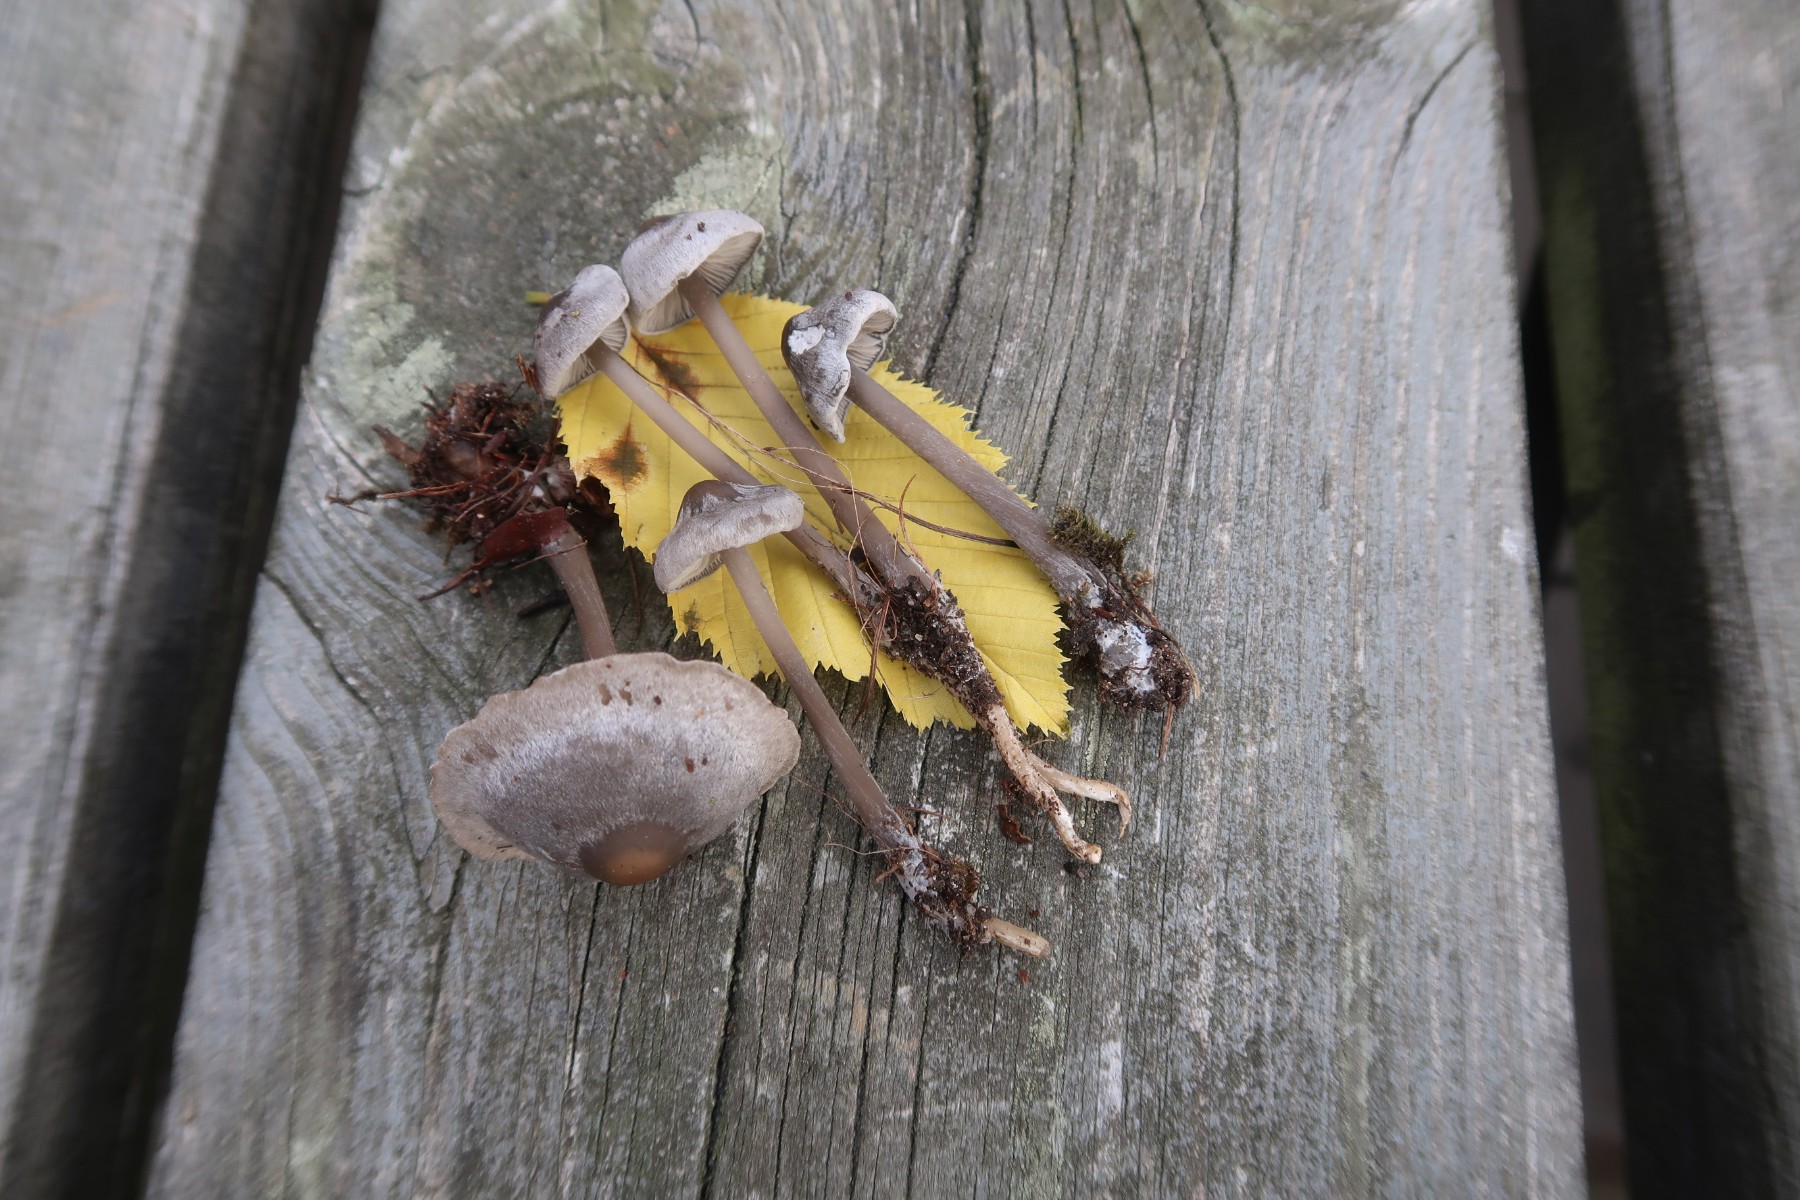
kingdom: Fungi
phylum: Basidiomycota
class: Agaricomycetes
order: Agaricales
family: Lyophyllaceae
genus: Tephrocybe
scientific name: Tephrocybe rancida
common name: mel-gråblad
